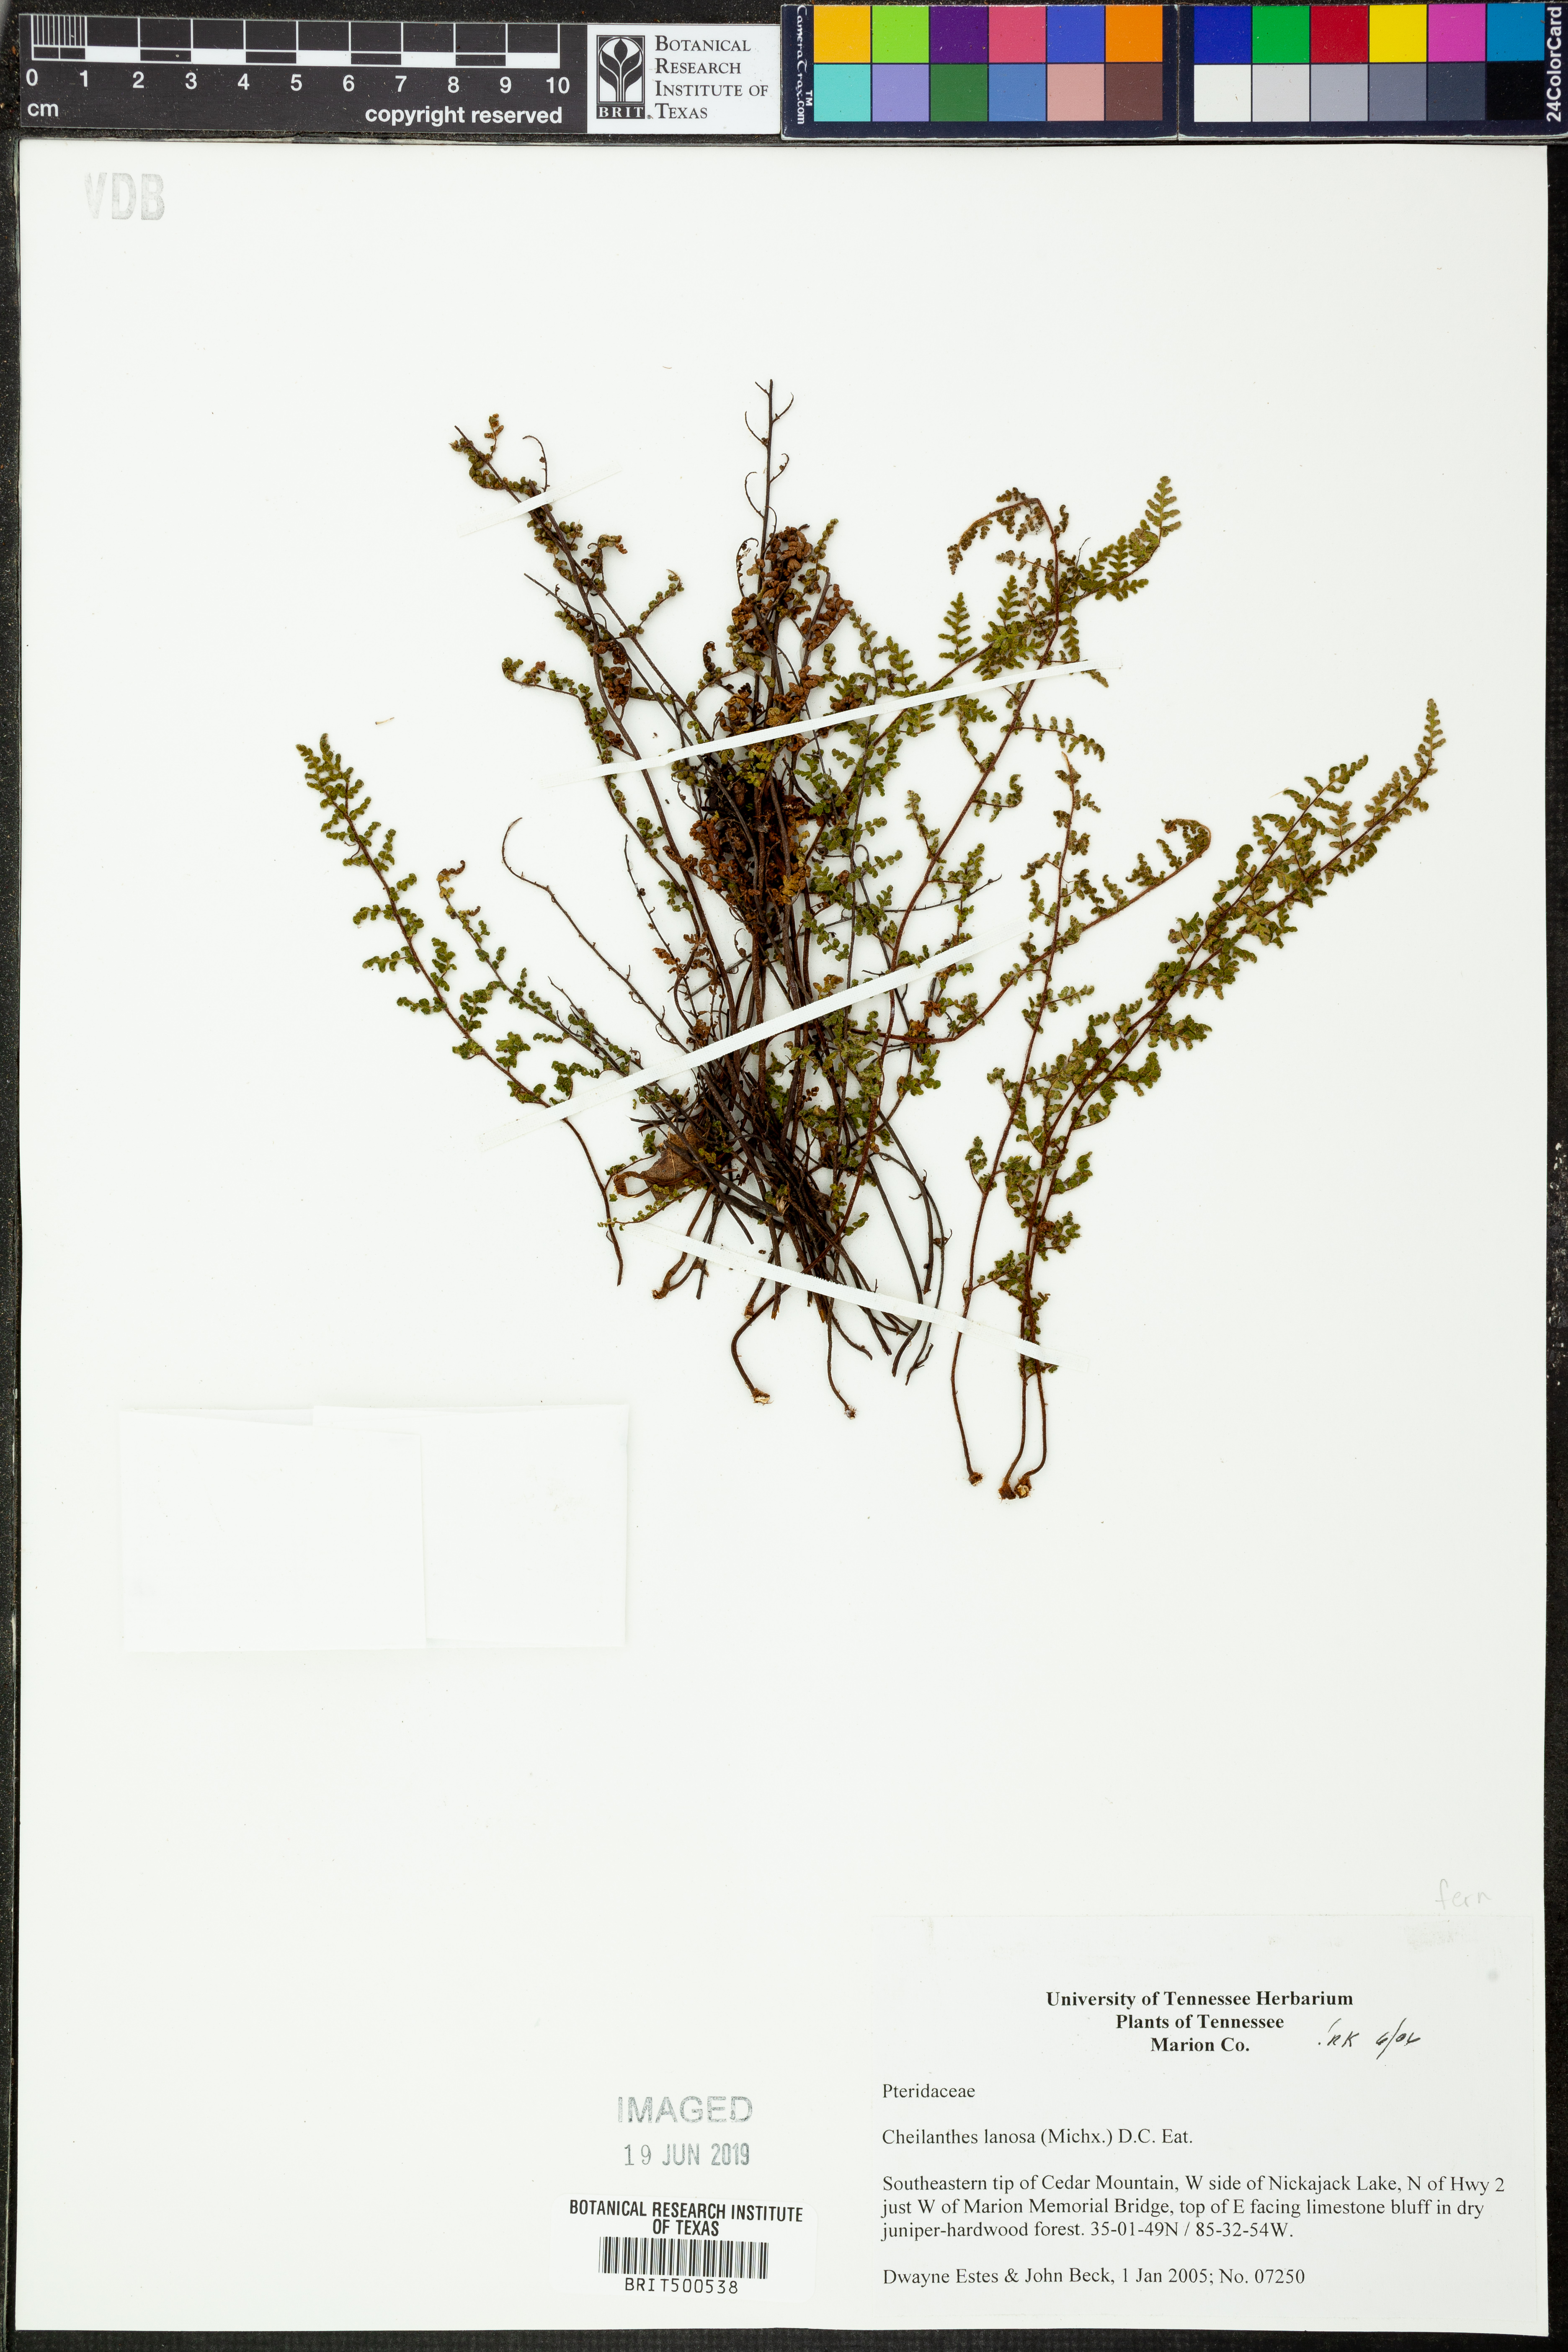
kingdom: Plantae
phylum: Tracheophyta
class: Polypodiopsida
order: Polypodiales
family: Pteridaceae
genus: Myriopteris
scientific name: Myriopteris lanosa
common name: Hairy lip fern
